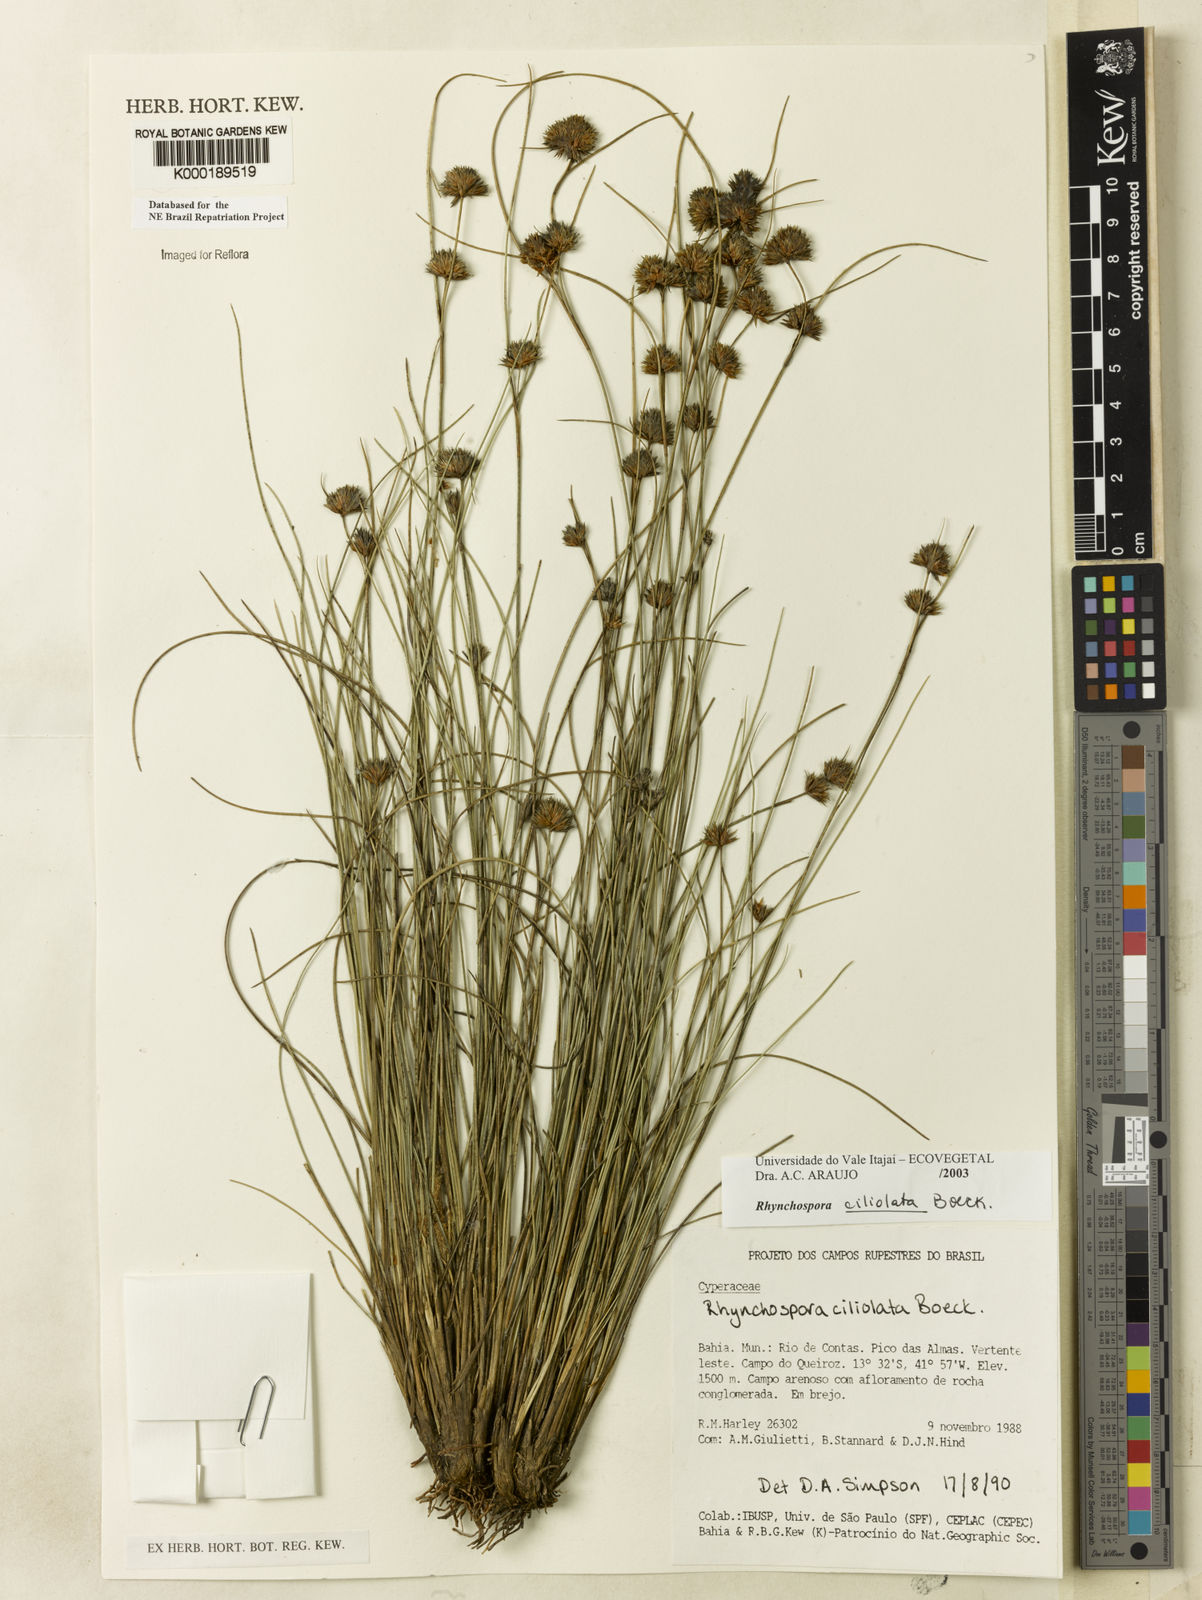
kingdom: Plantae
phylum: Tracheophyta
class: Liliopsida
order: Poales
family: Cyperaceae
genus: Rhynchospora
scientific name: Rhynchospora ciliolata
